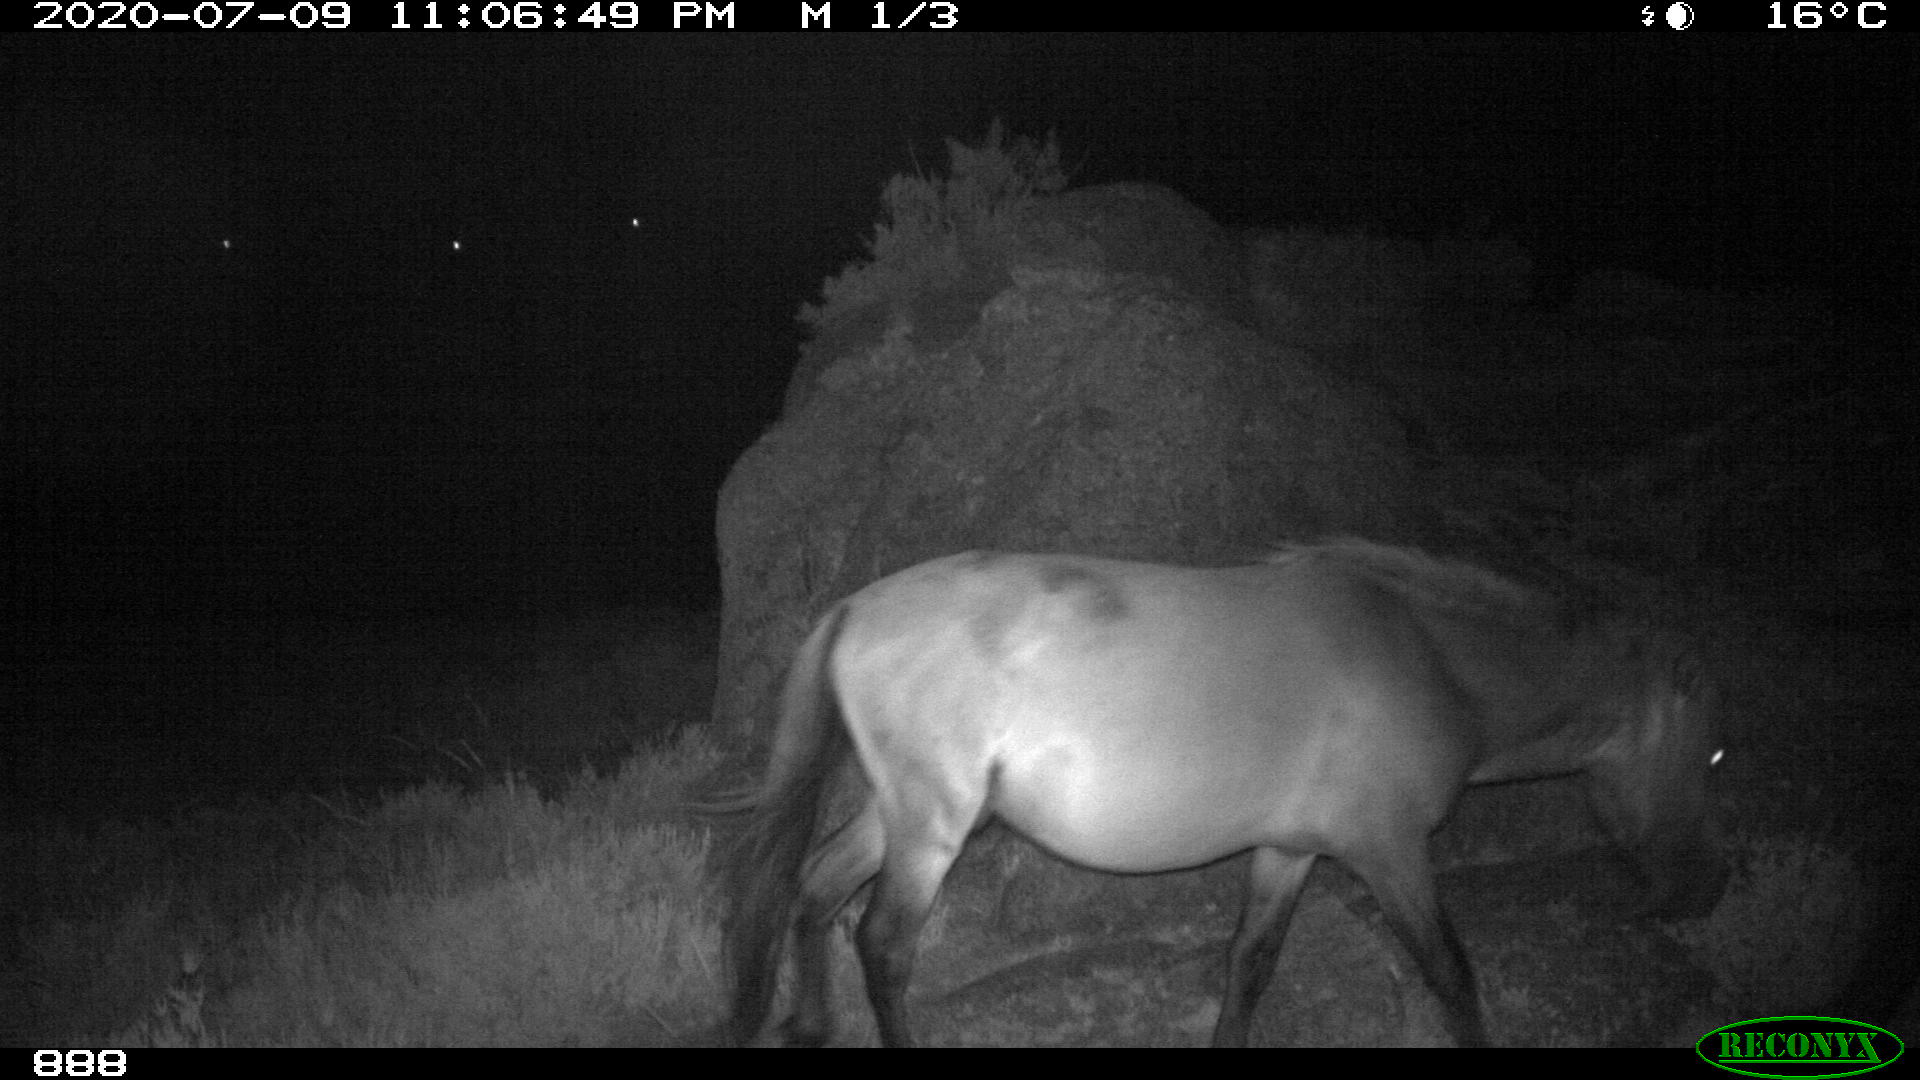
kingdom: Animalia
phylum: Chordata
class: Mammalia
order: Perissodactyla
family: Equidae
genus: Equus
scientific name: Equus caballus
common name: Horse
